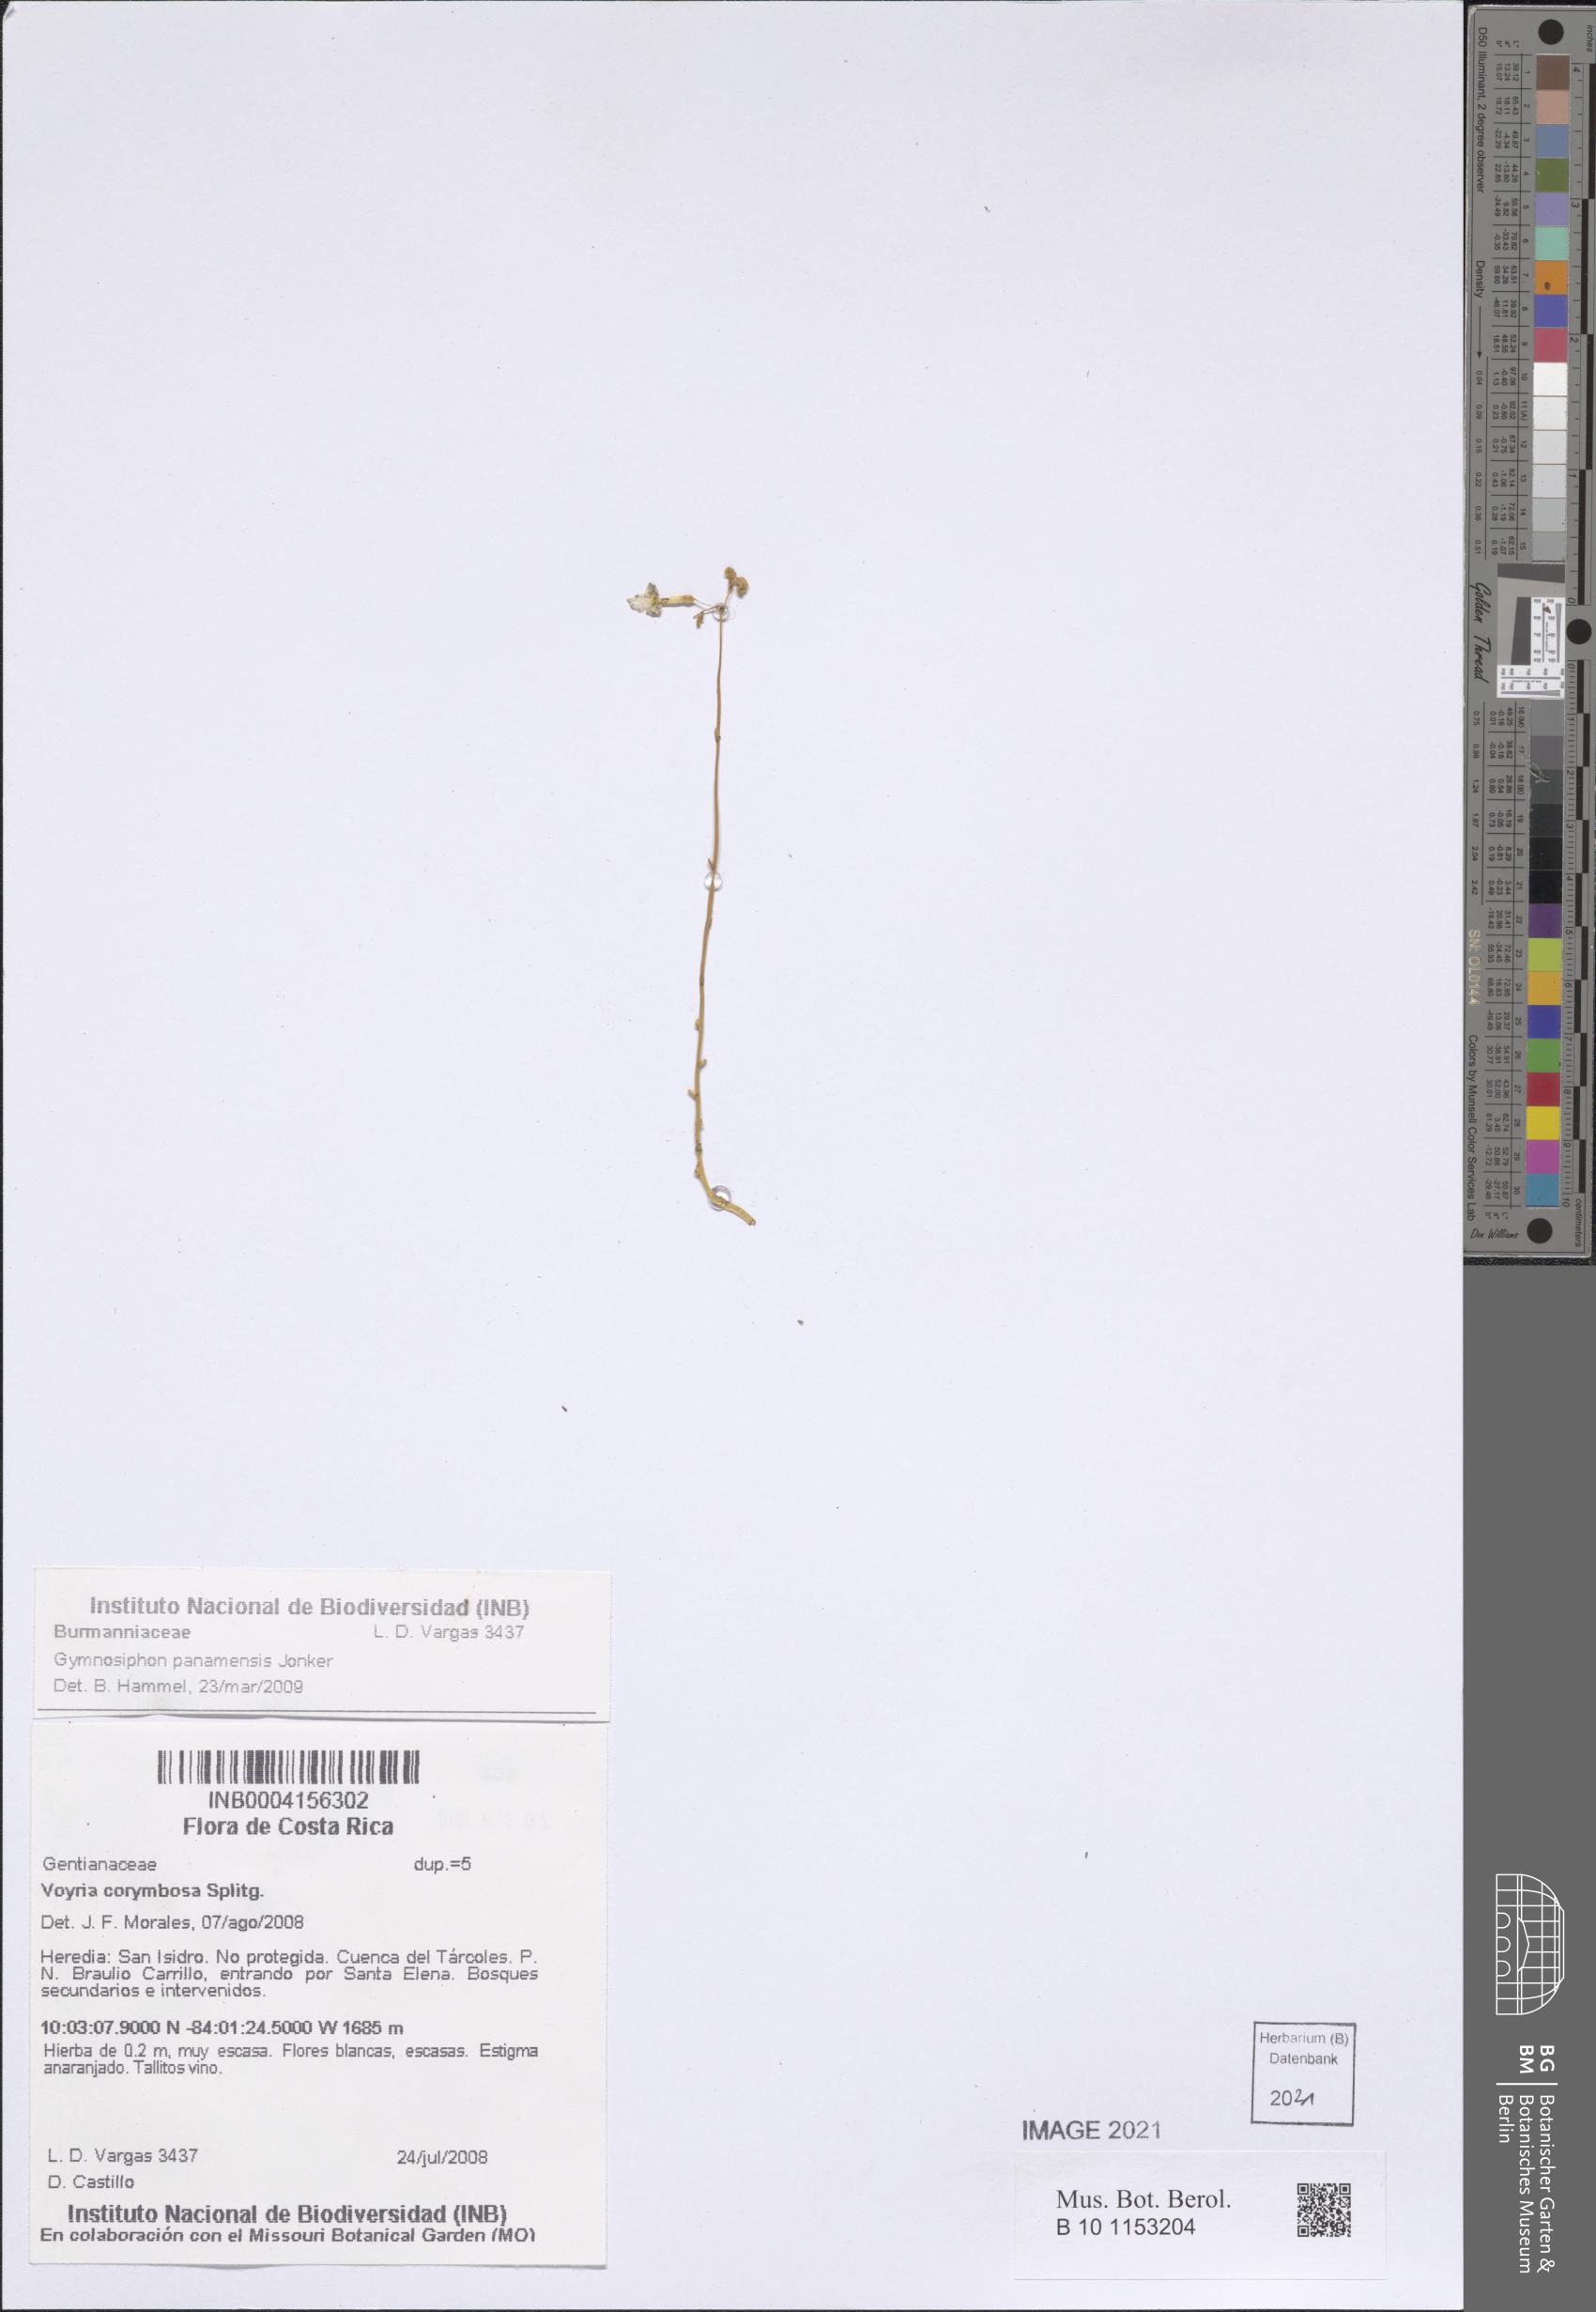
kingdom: Plantae
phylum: Tracheophyta
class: Liliopsida
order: Dioscoreales
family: Burmanniaceae
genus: Gymnosiphon
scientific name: Gymnosiphon panamensis
